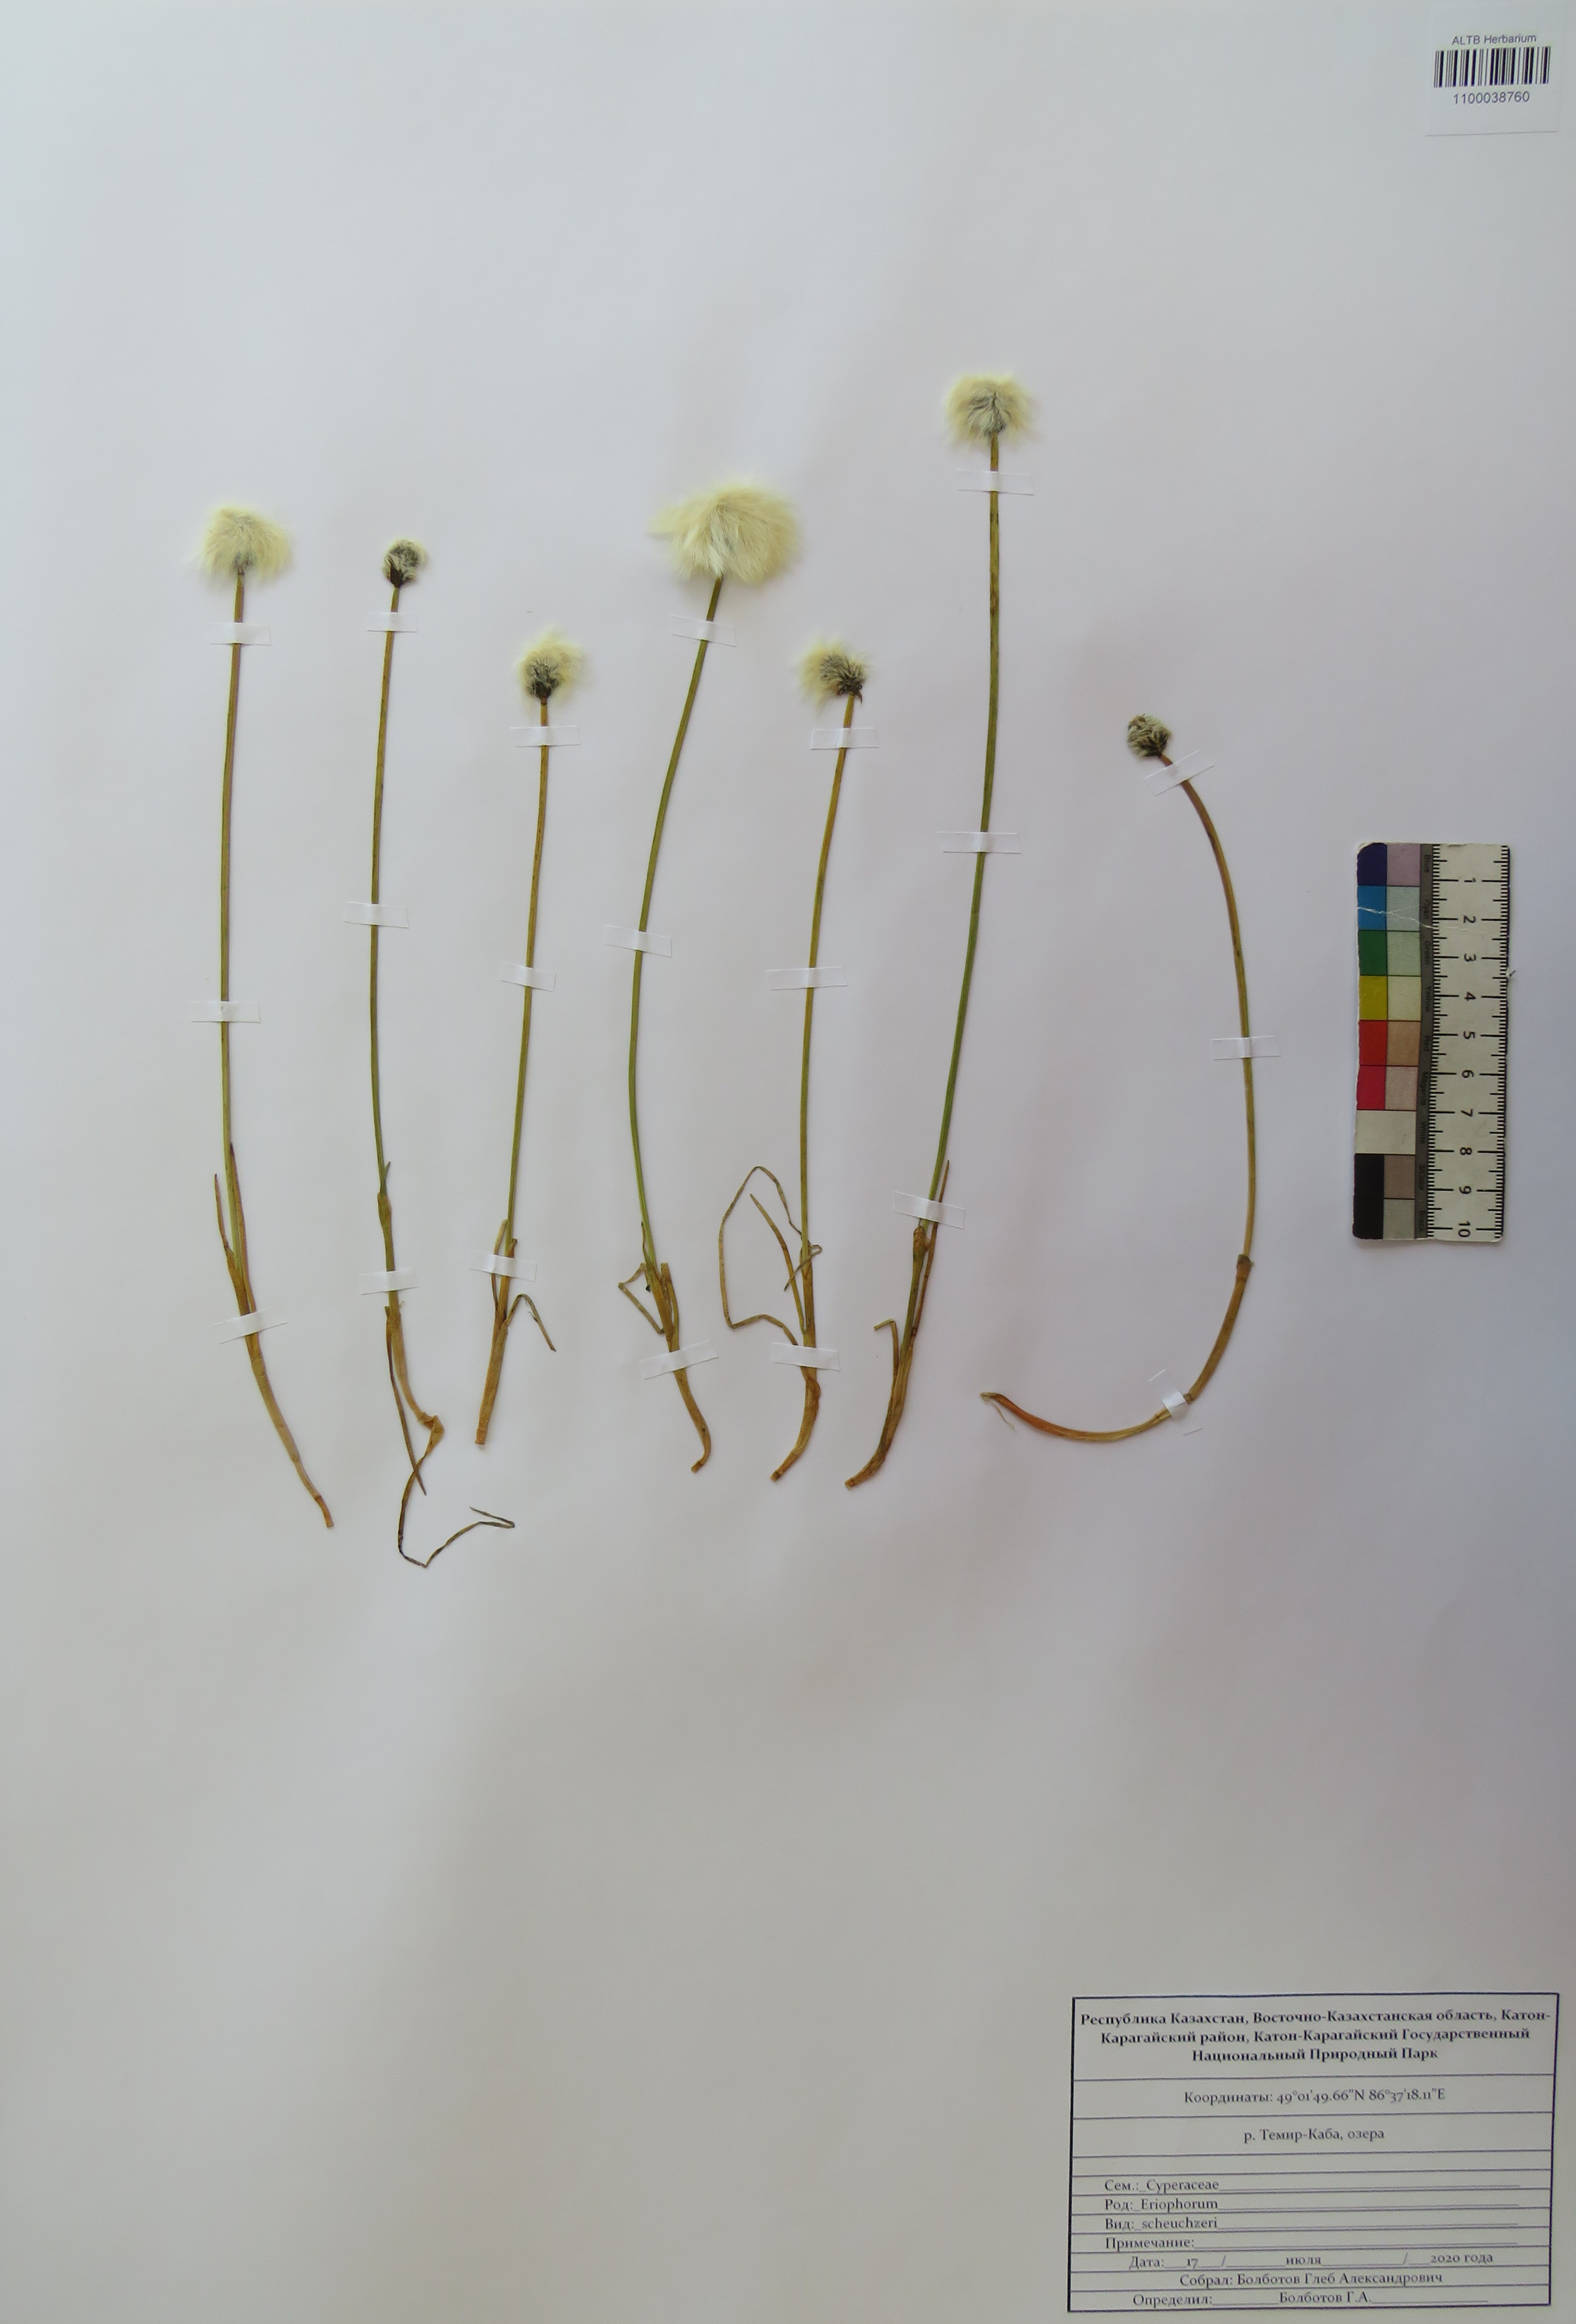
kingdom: Plantae
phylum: Tracheophyta
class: Liliopsida
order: Poales
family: Cyperaceae
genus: Eriophorum
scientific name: Eriophorum scheuchzeri
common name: Scheuchzer's cottongrass
